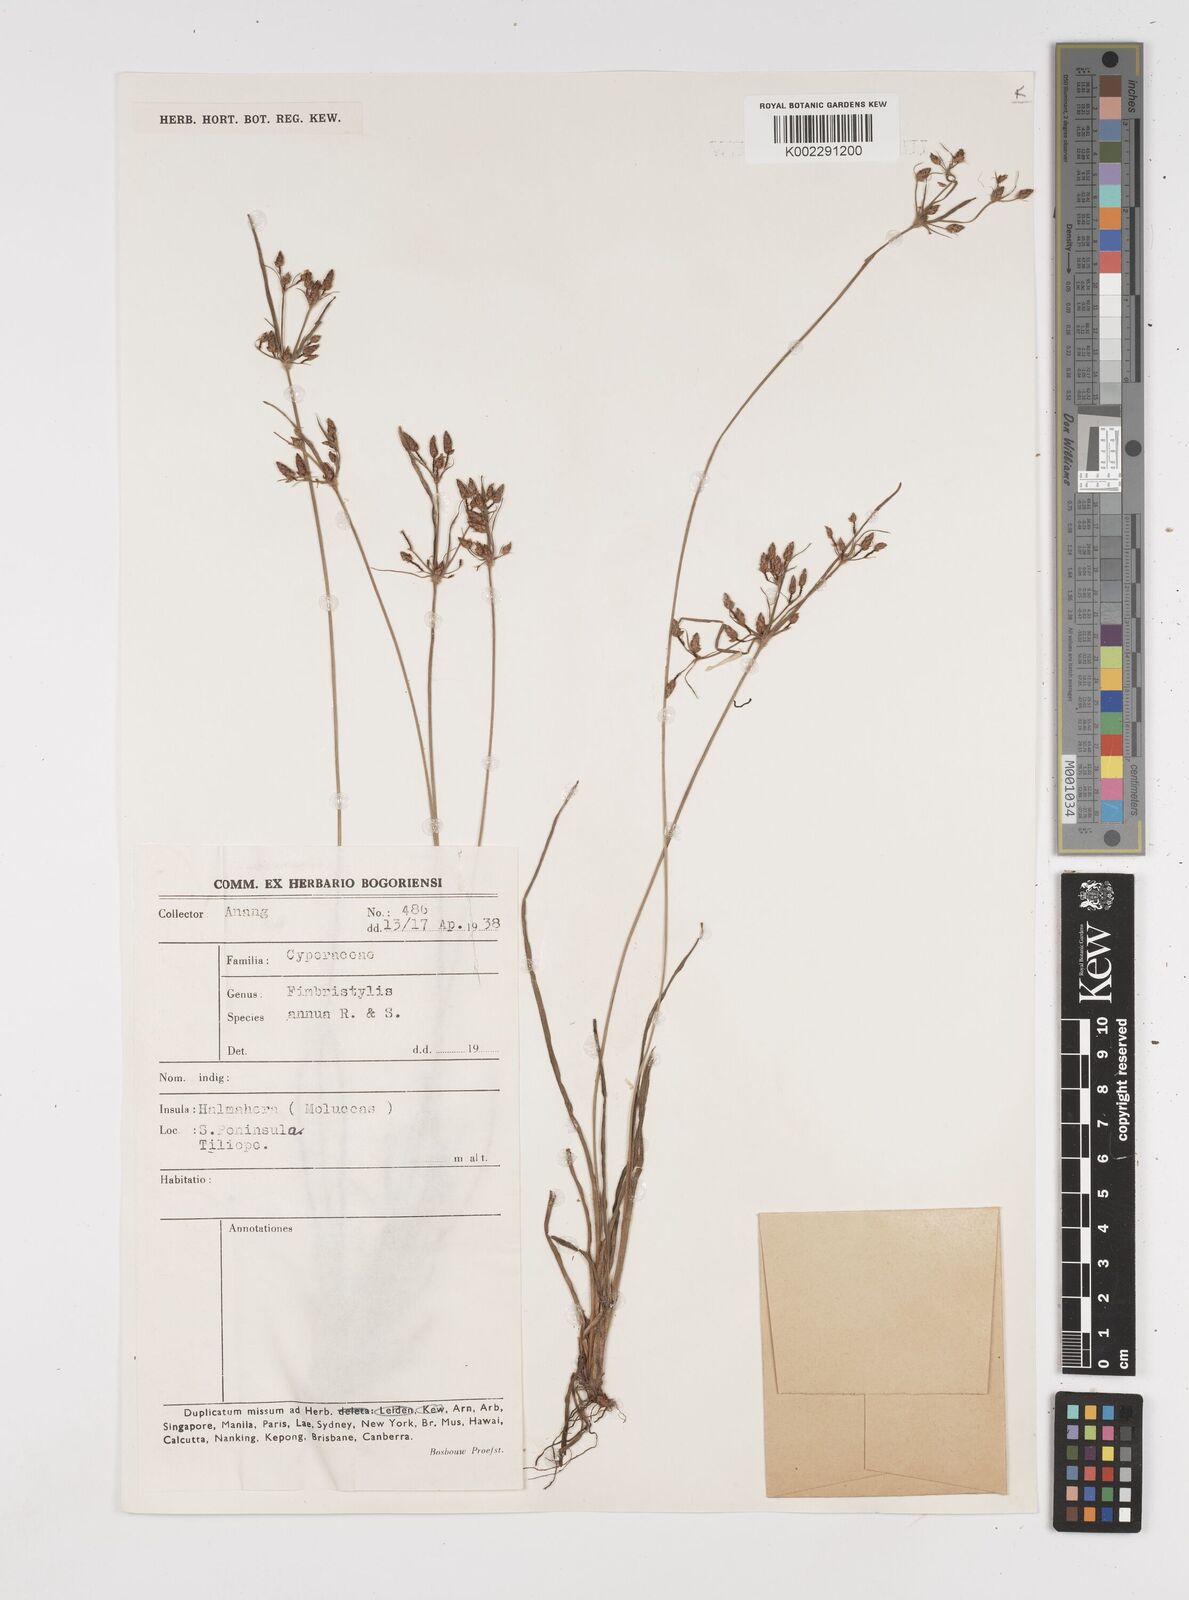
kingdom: Plantae
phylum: Tracheophyta
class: Liliopsida
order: Poales
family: Cyperaceae
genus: Fimbristylis
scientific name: Fimbristylis dichotoma
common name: Forked fimbry
